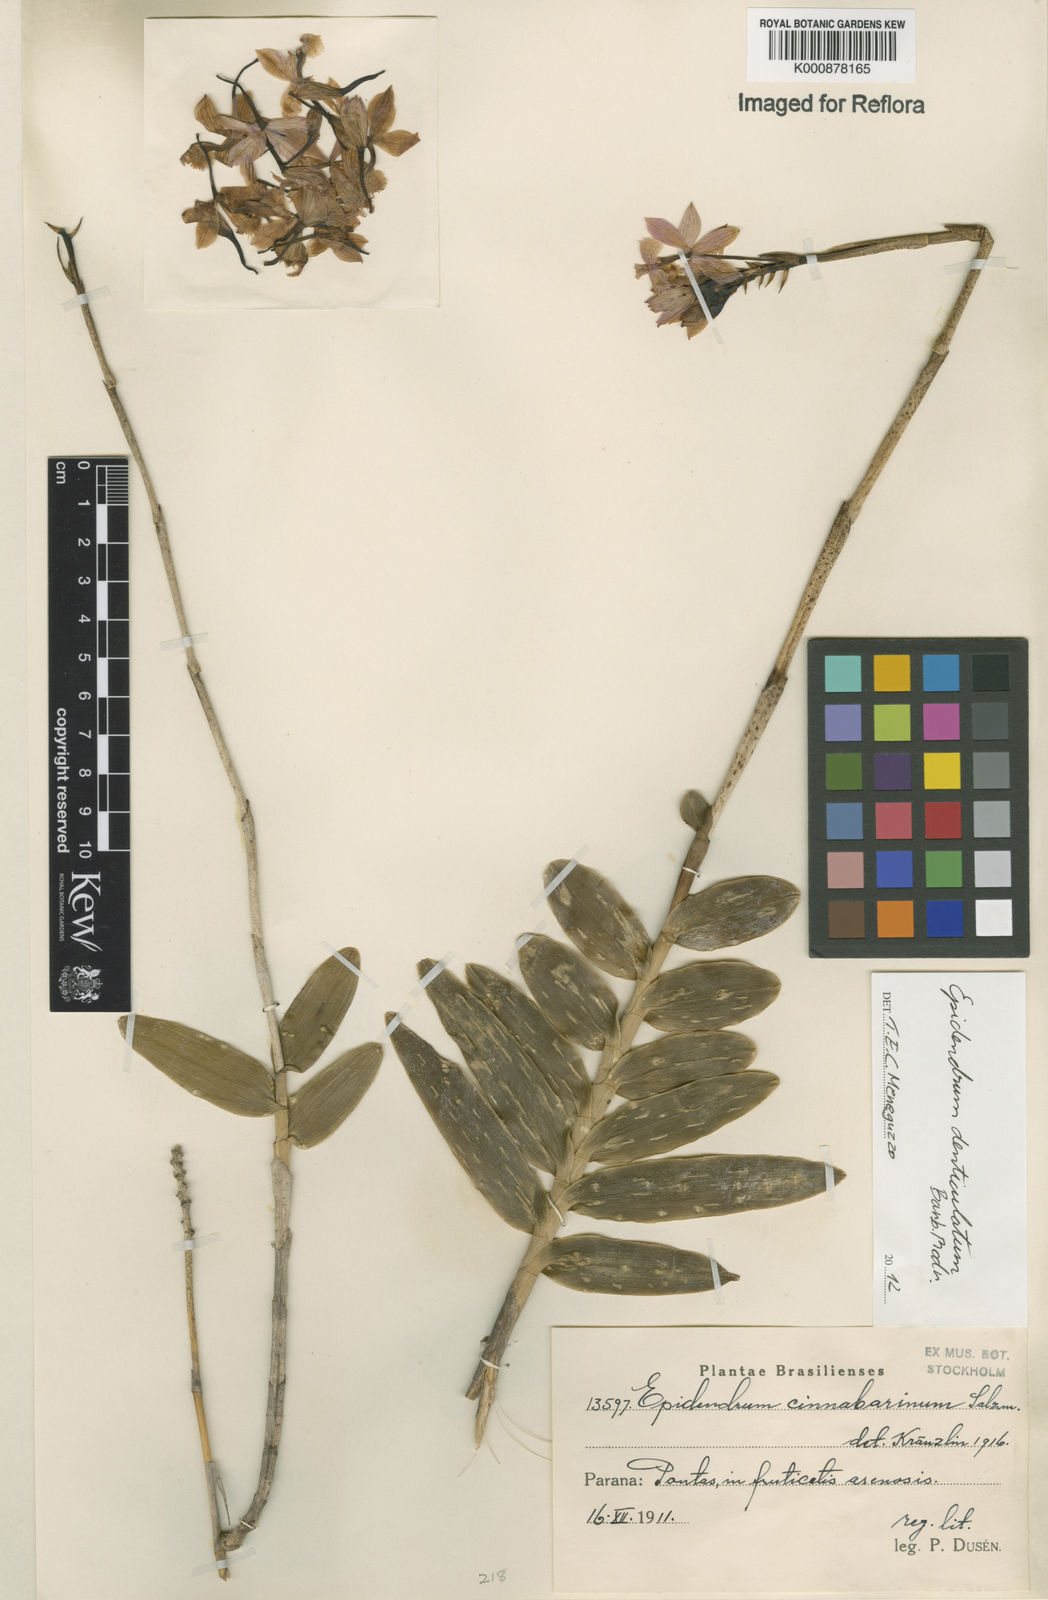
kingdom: Plantae
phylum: Tracheophyta
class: Liliopsida
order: Asparagales
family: Orchidaceae
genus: Epidendrum
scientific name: Epidendrum denticulatum
